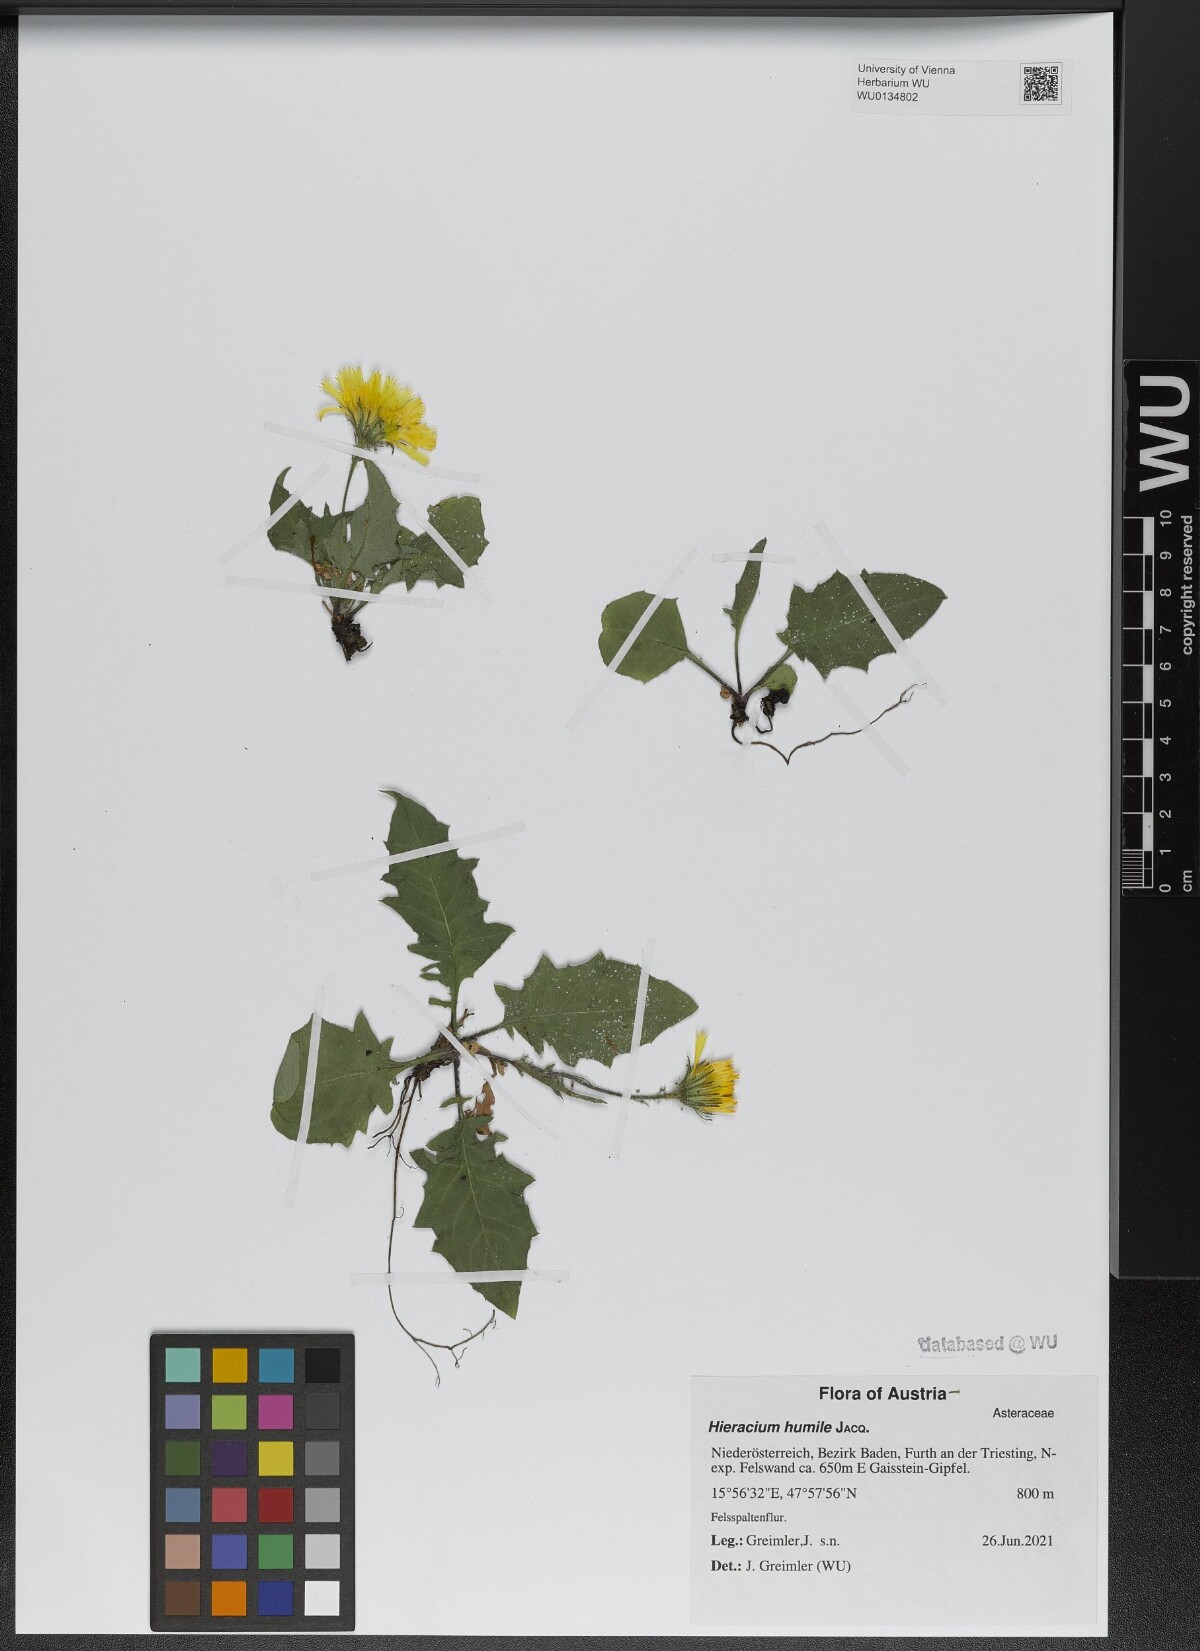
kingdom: Plantae
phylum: Tracheophyta
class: Magnoliopsida
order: Asterales
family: Asteraceae
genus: Hieracium
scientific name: Hieracium humile
